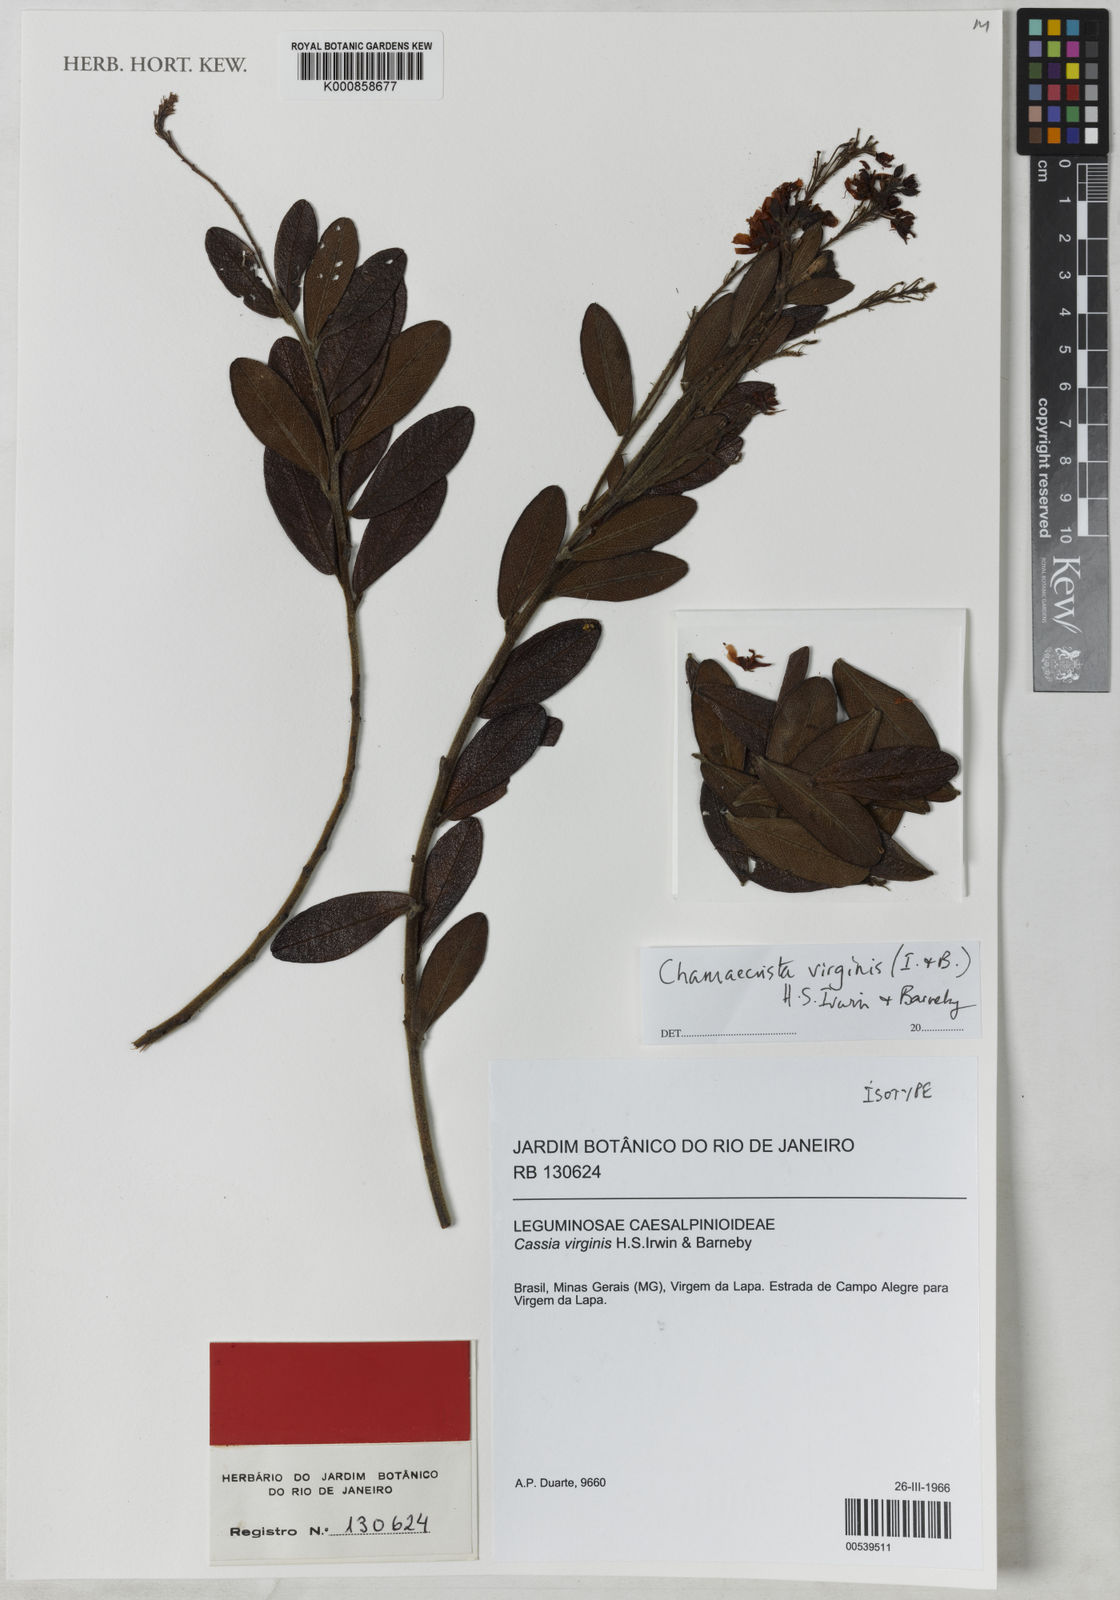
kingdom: Plantae
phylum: Tracheophyta
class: Magnoliopsida
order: Fabales
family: Fabaceae
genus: Chamaecrista
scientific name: Chamaecrista virginis
